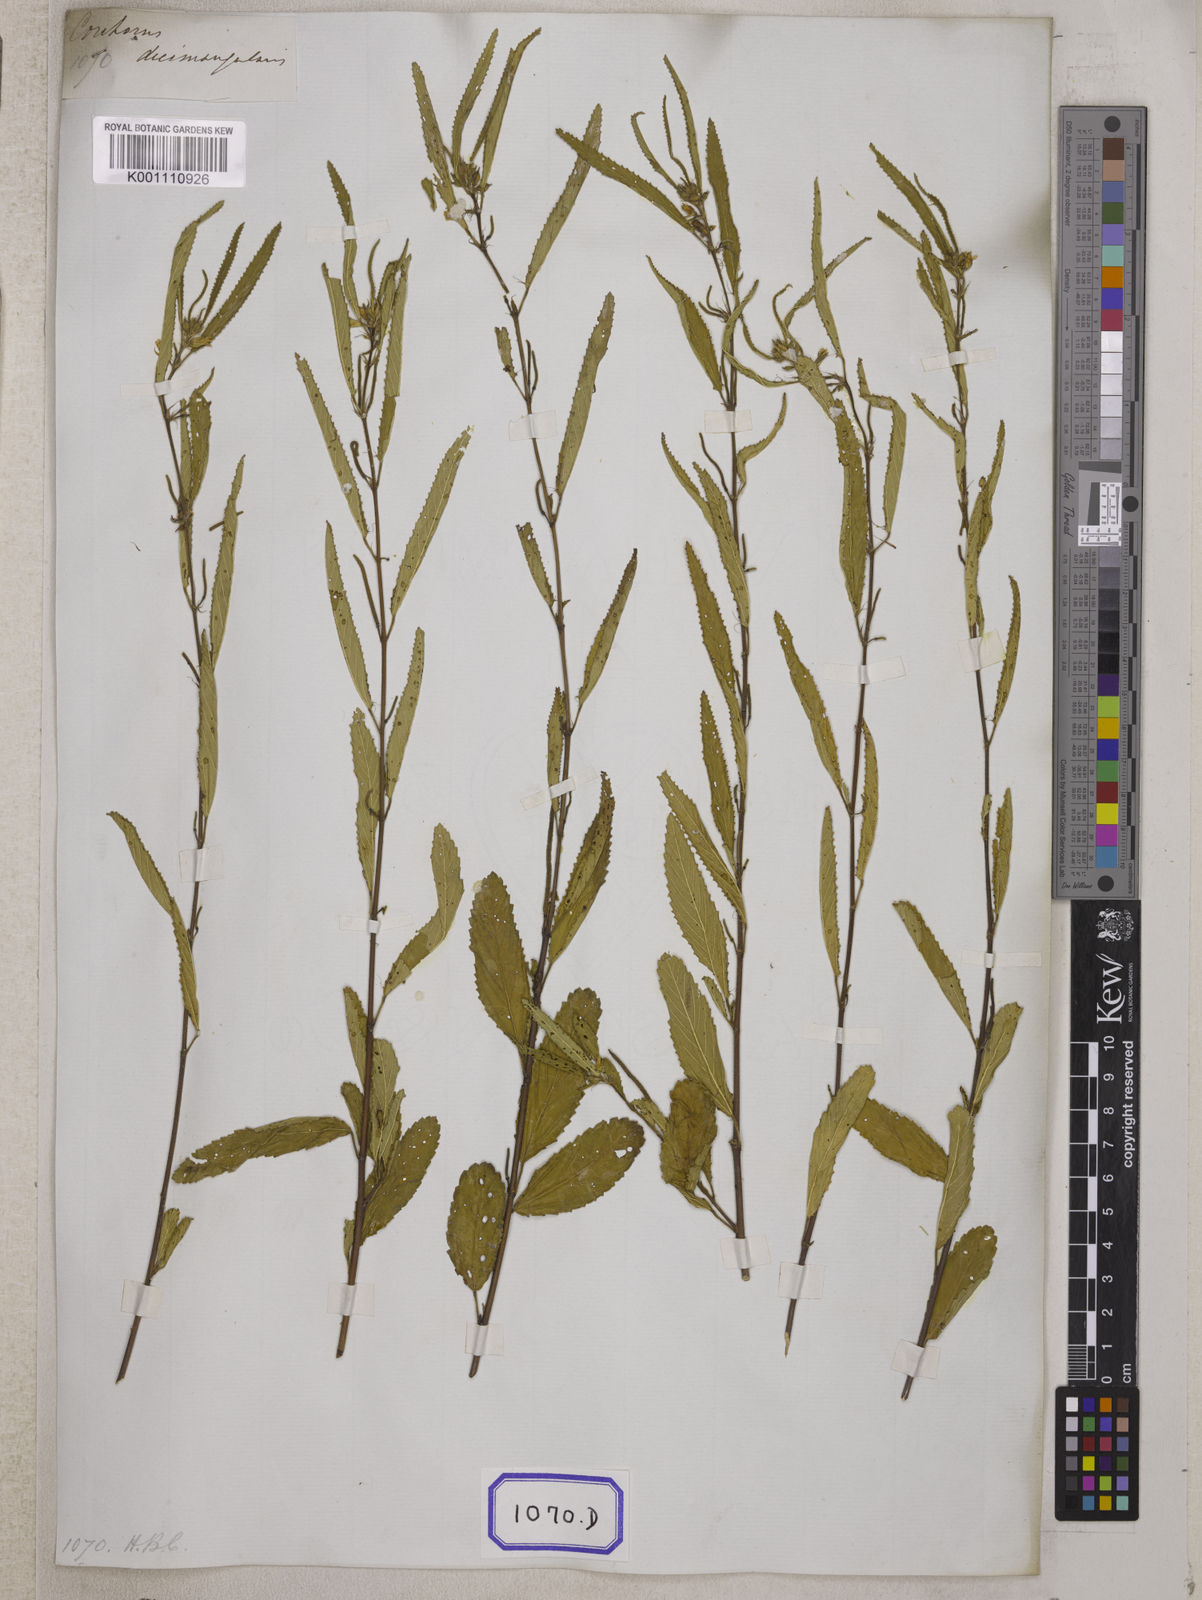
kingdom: Plantae
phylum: Tracheophyta
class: Magnoliopsida
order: Malvales
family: Malvaceae
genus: Corchorus
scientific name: Corchorus
